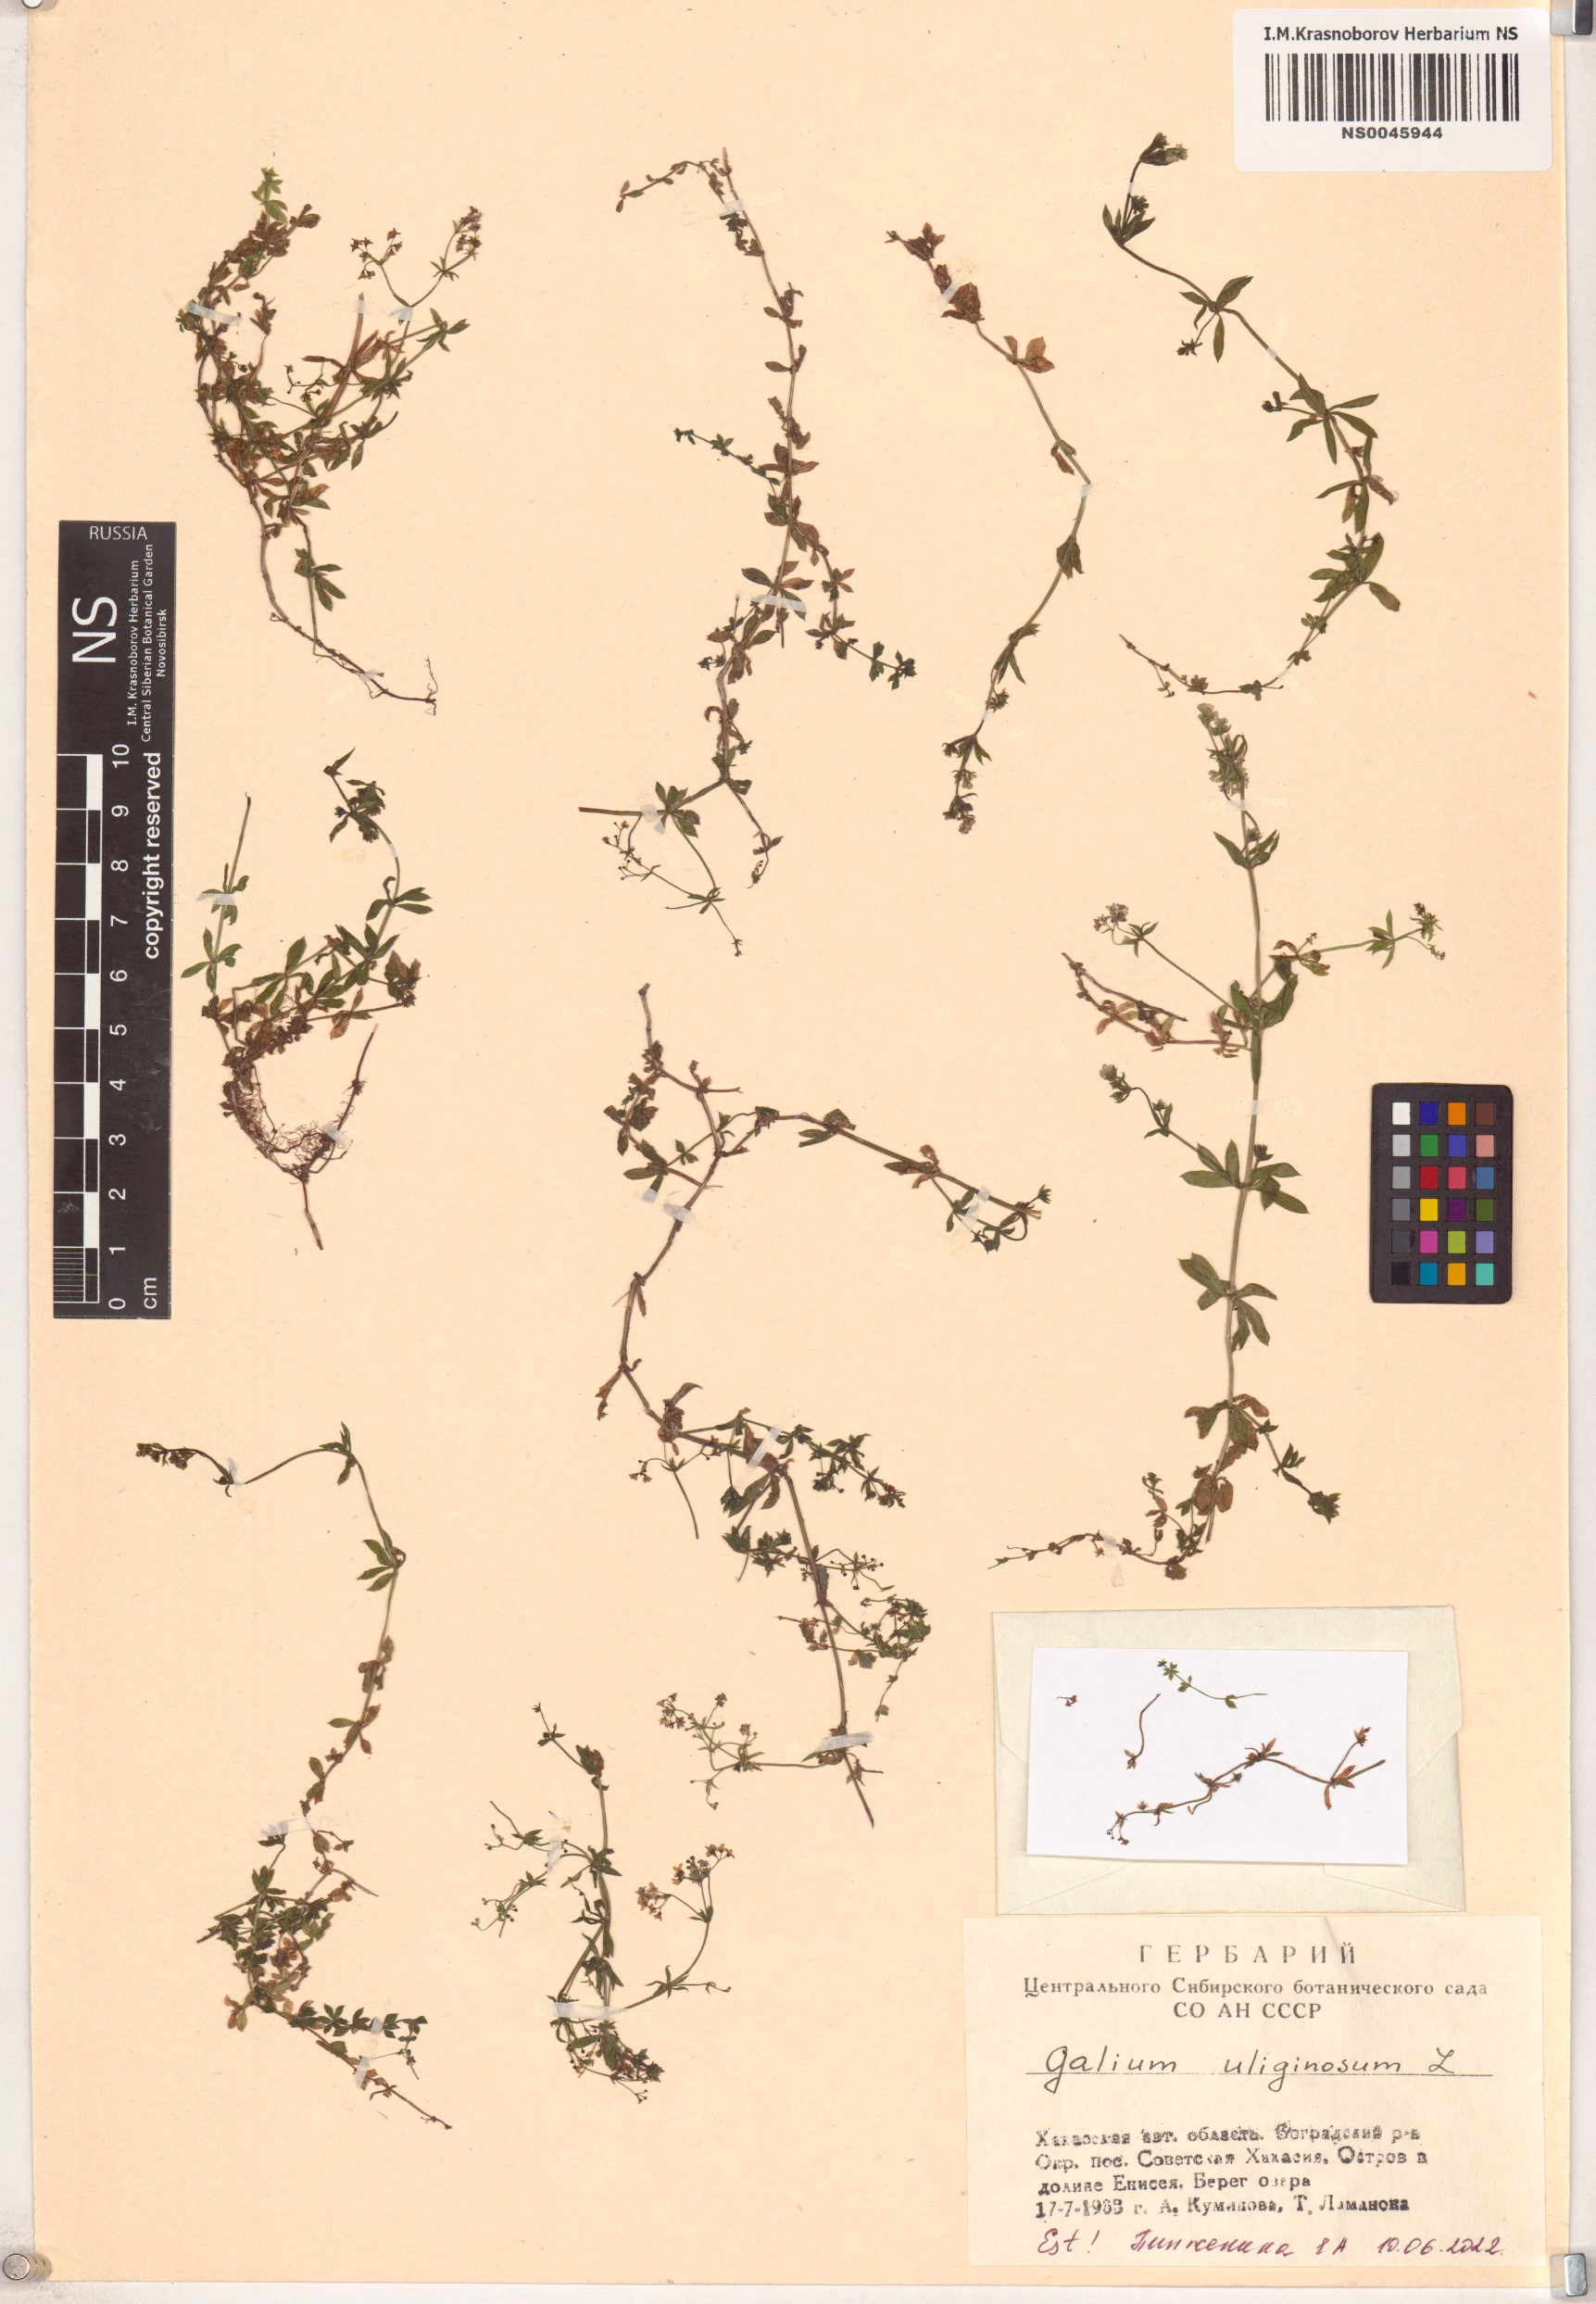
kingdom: Plantae
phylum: Tracheophyta
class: Magnoliopsida
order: Gentianales
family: Rubiaceae
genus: Galium
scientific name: Galium uliginosum
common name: Fen bedstraw
